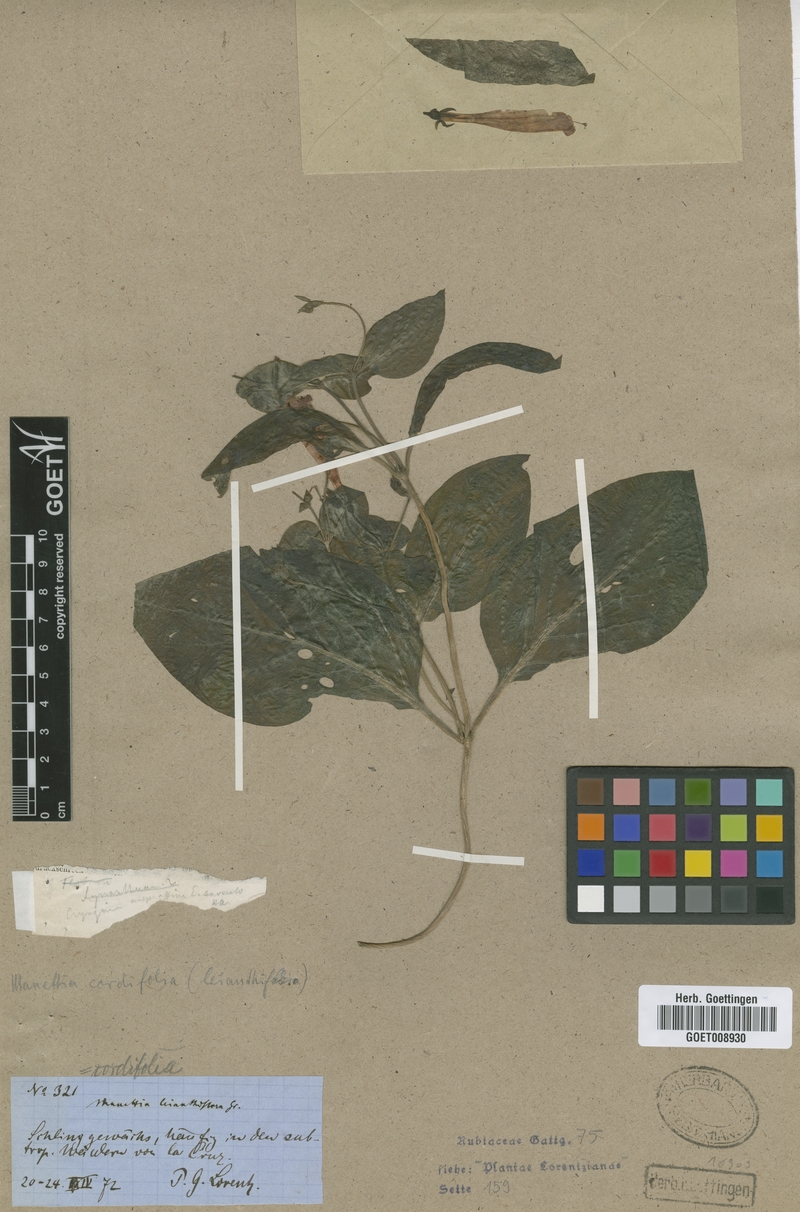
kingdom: Plantae
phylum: Tracheophyta
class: Magnoliopsida
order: Gentianales
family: Rubiaceae
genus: Manettia
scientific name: Manettia cordifolia
